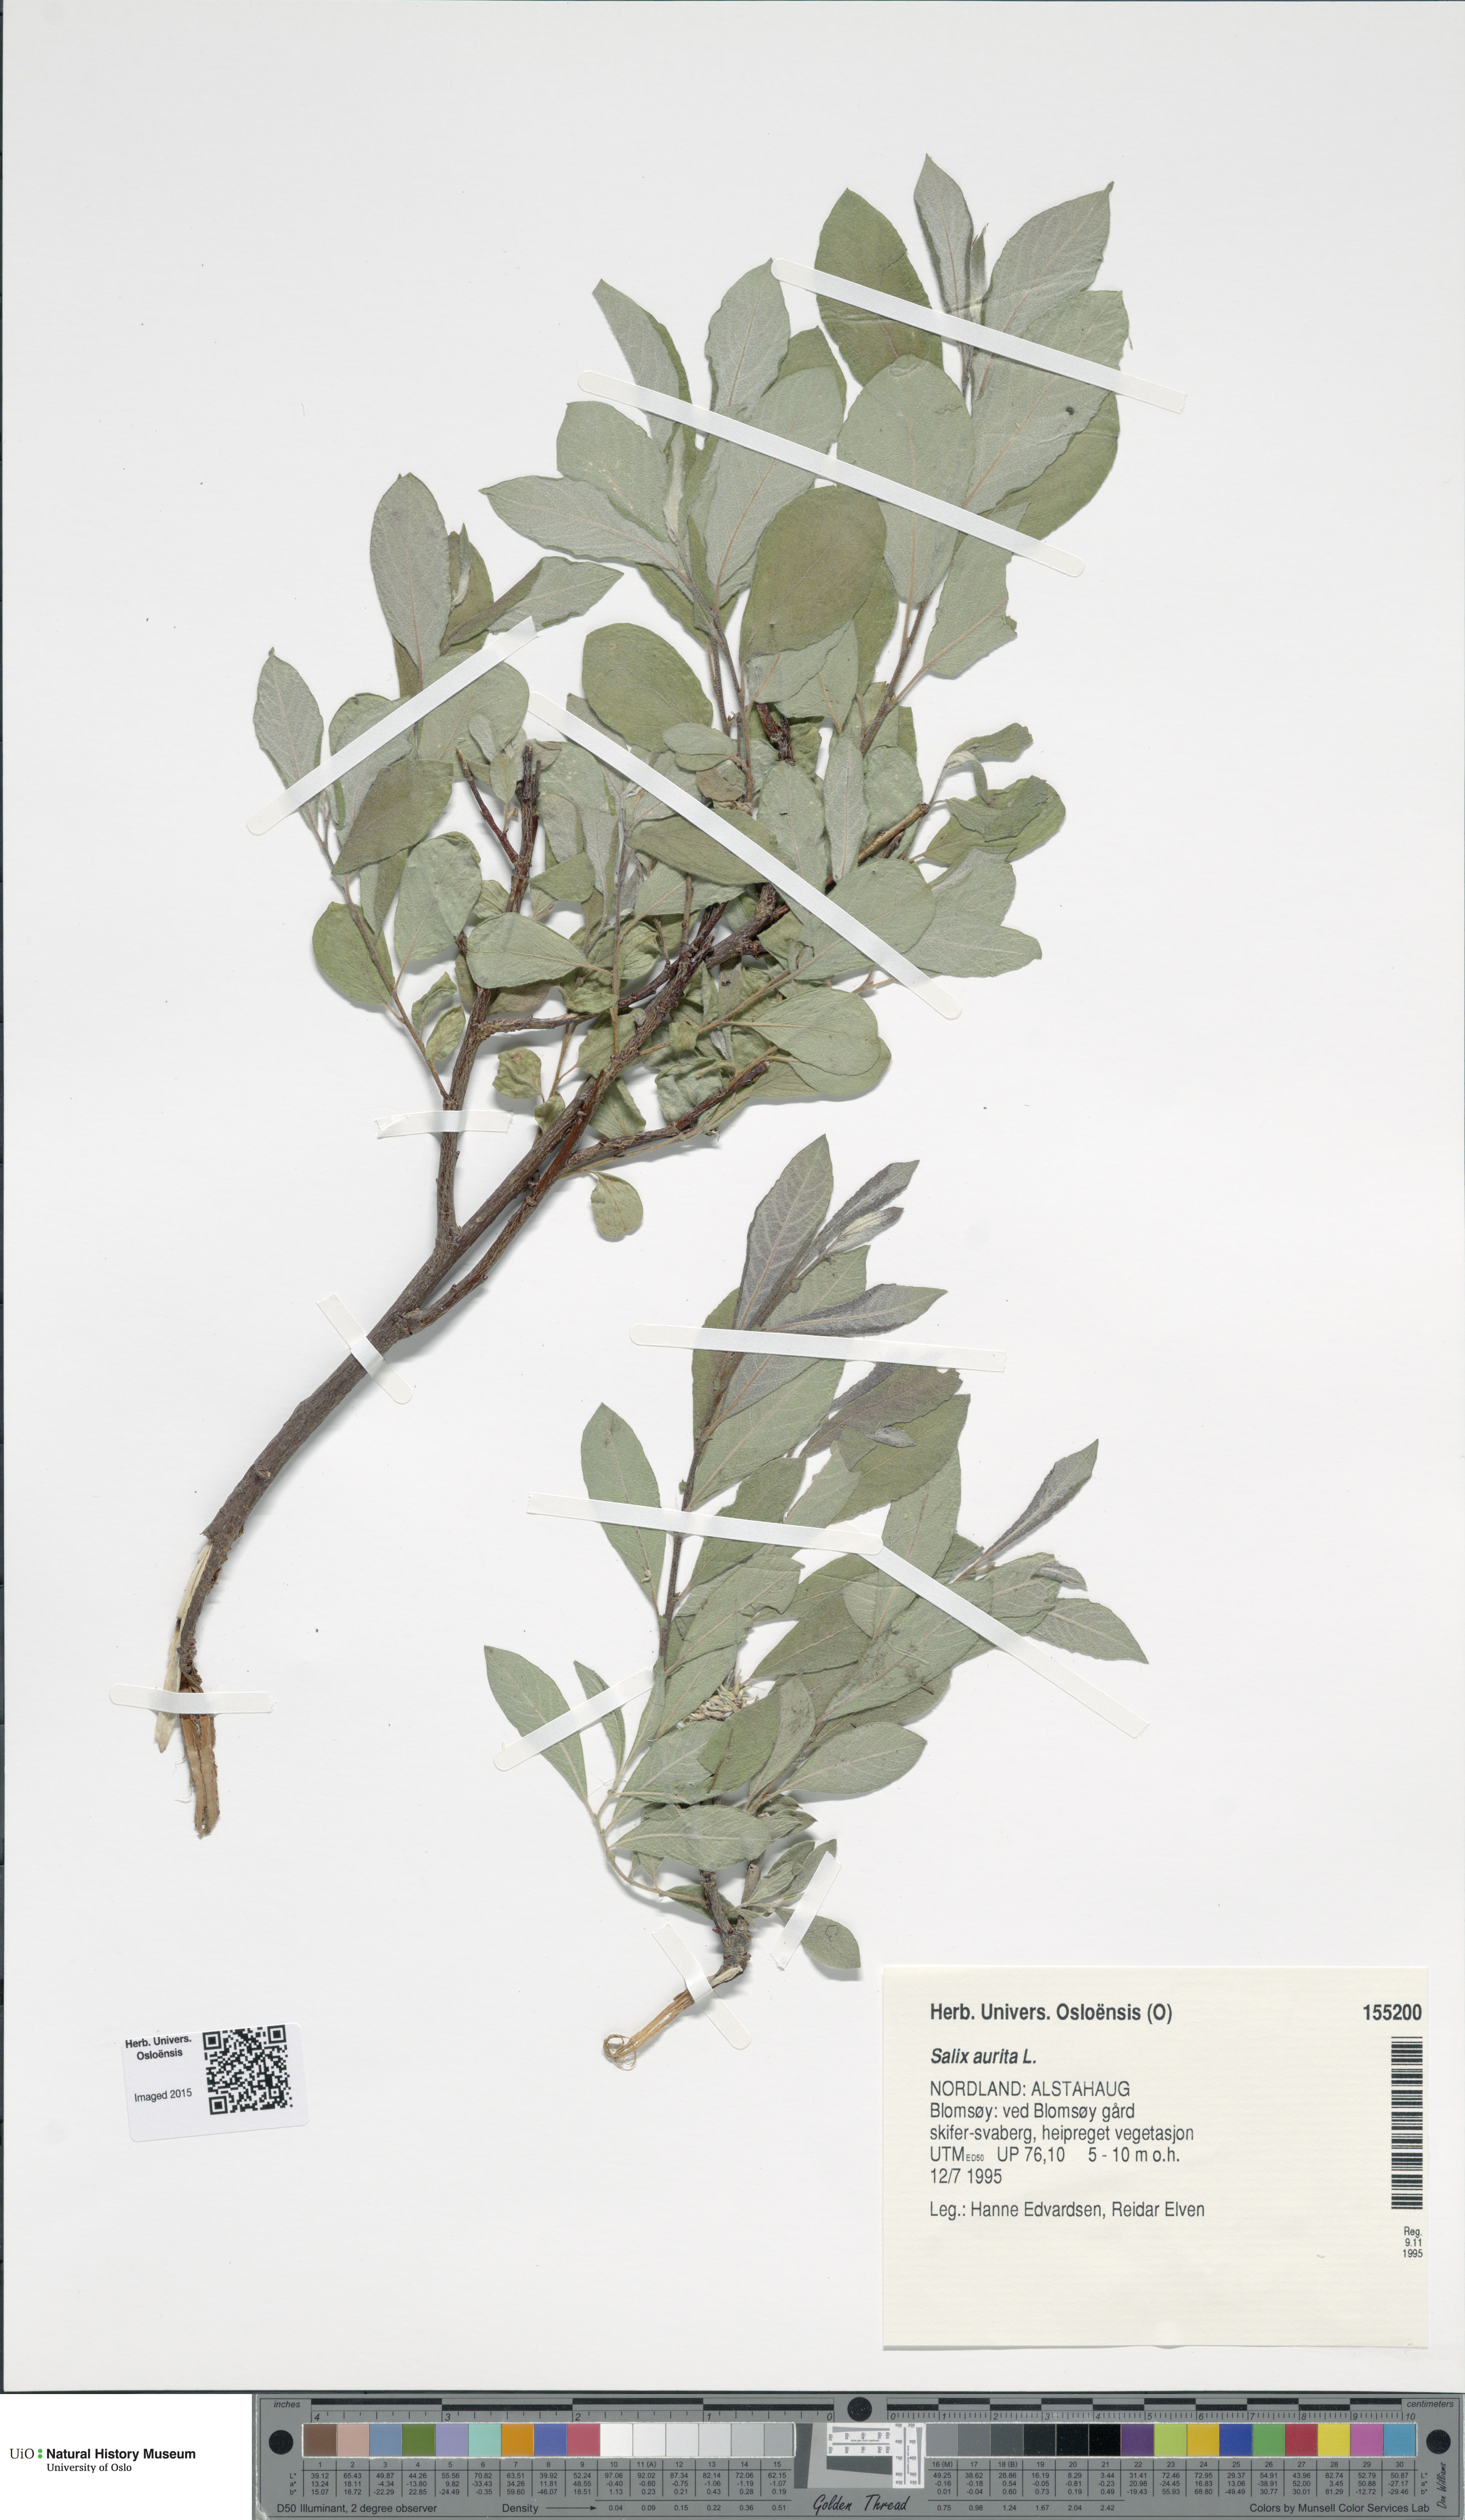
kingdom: Plantae
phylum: Tracheophyta
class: Magnoliopsida
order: Malpighiales
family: Salicaceae
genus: Salix
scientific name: Salix aurita
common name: Eared willow
